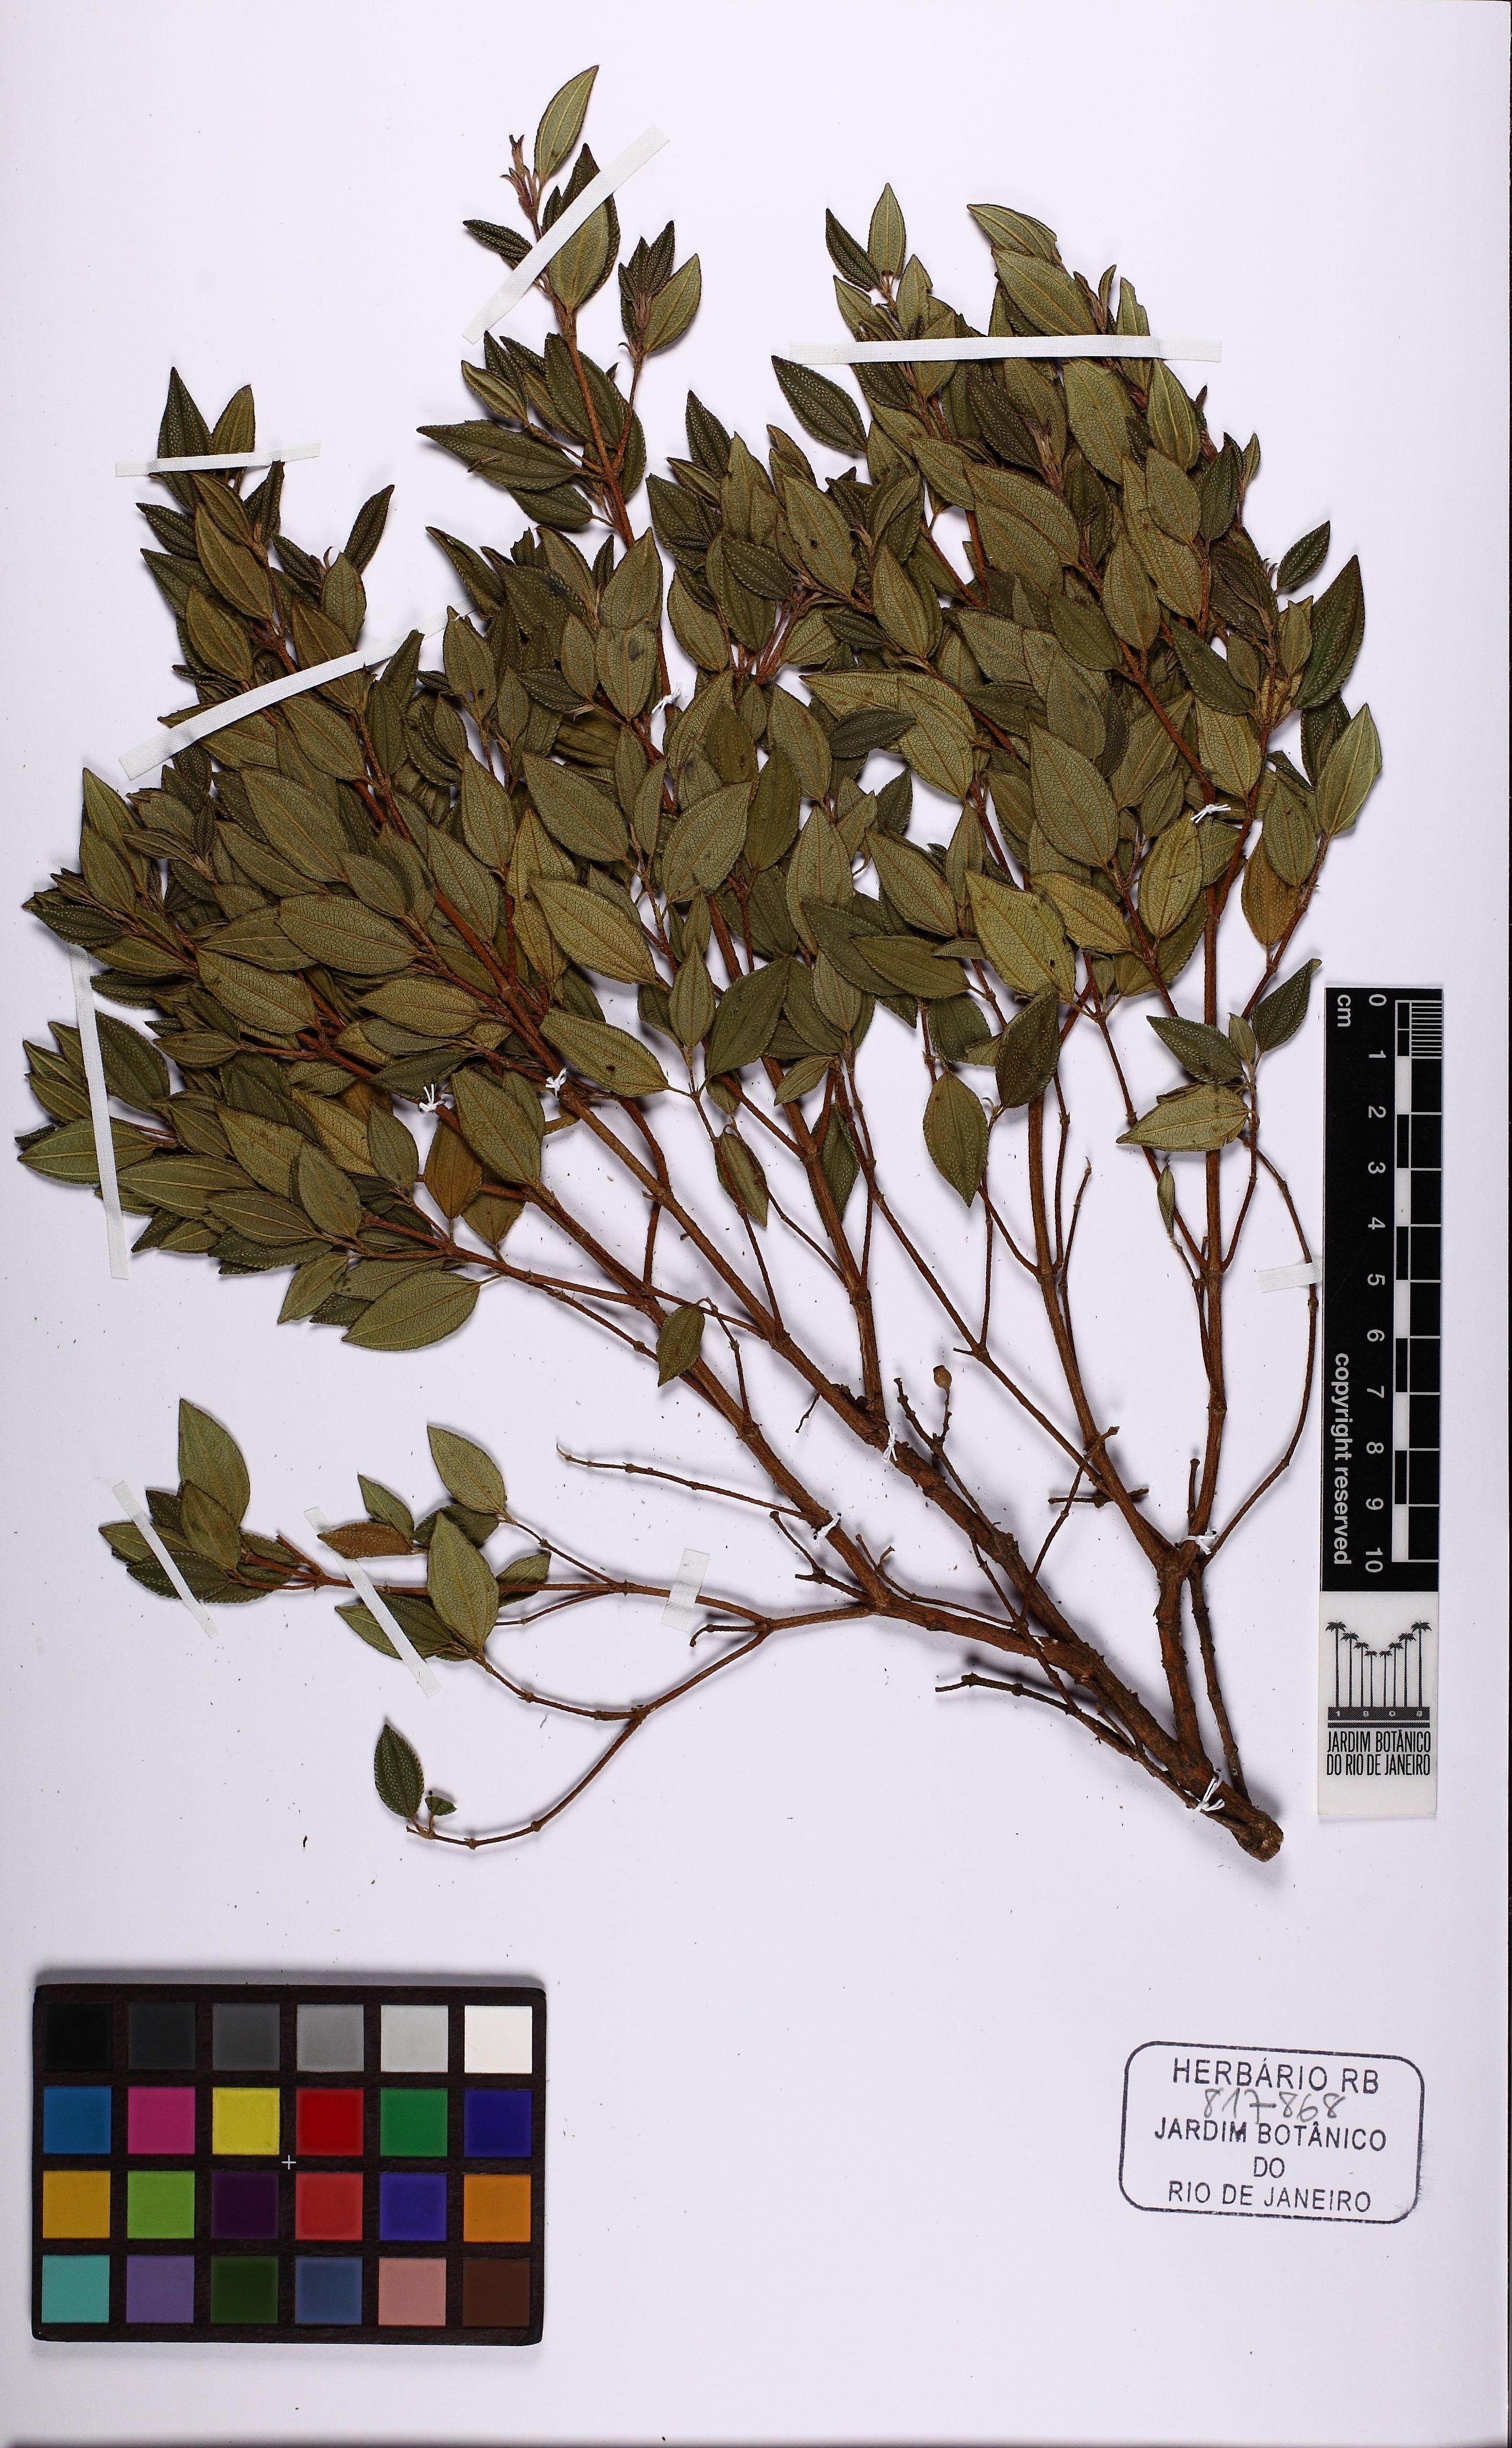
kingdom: Plantae
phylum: Tracheophyta
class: Magnoliopsida
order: Myrtales
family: Melastomataceae
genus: Pleroma
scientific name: Pleroma hospitum
